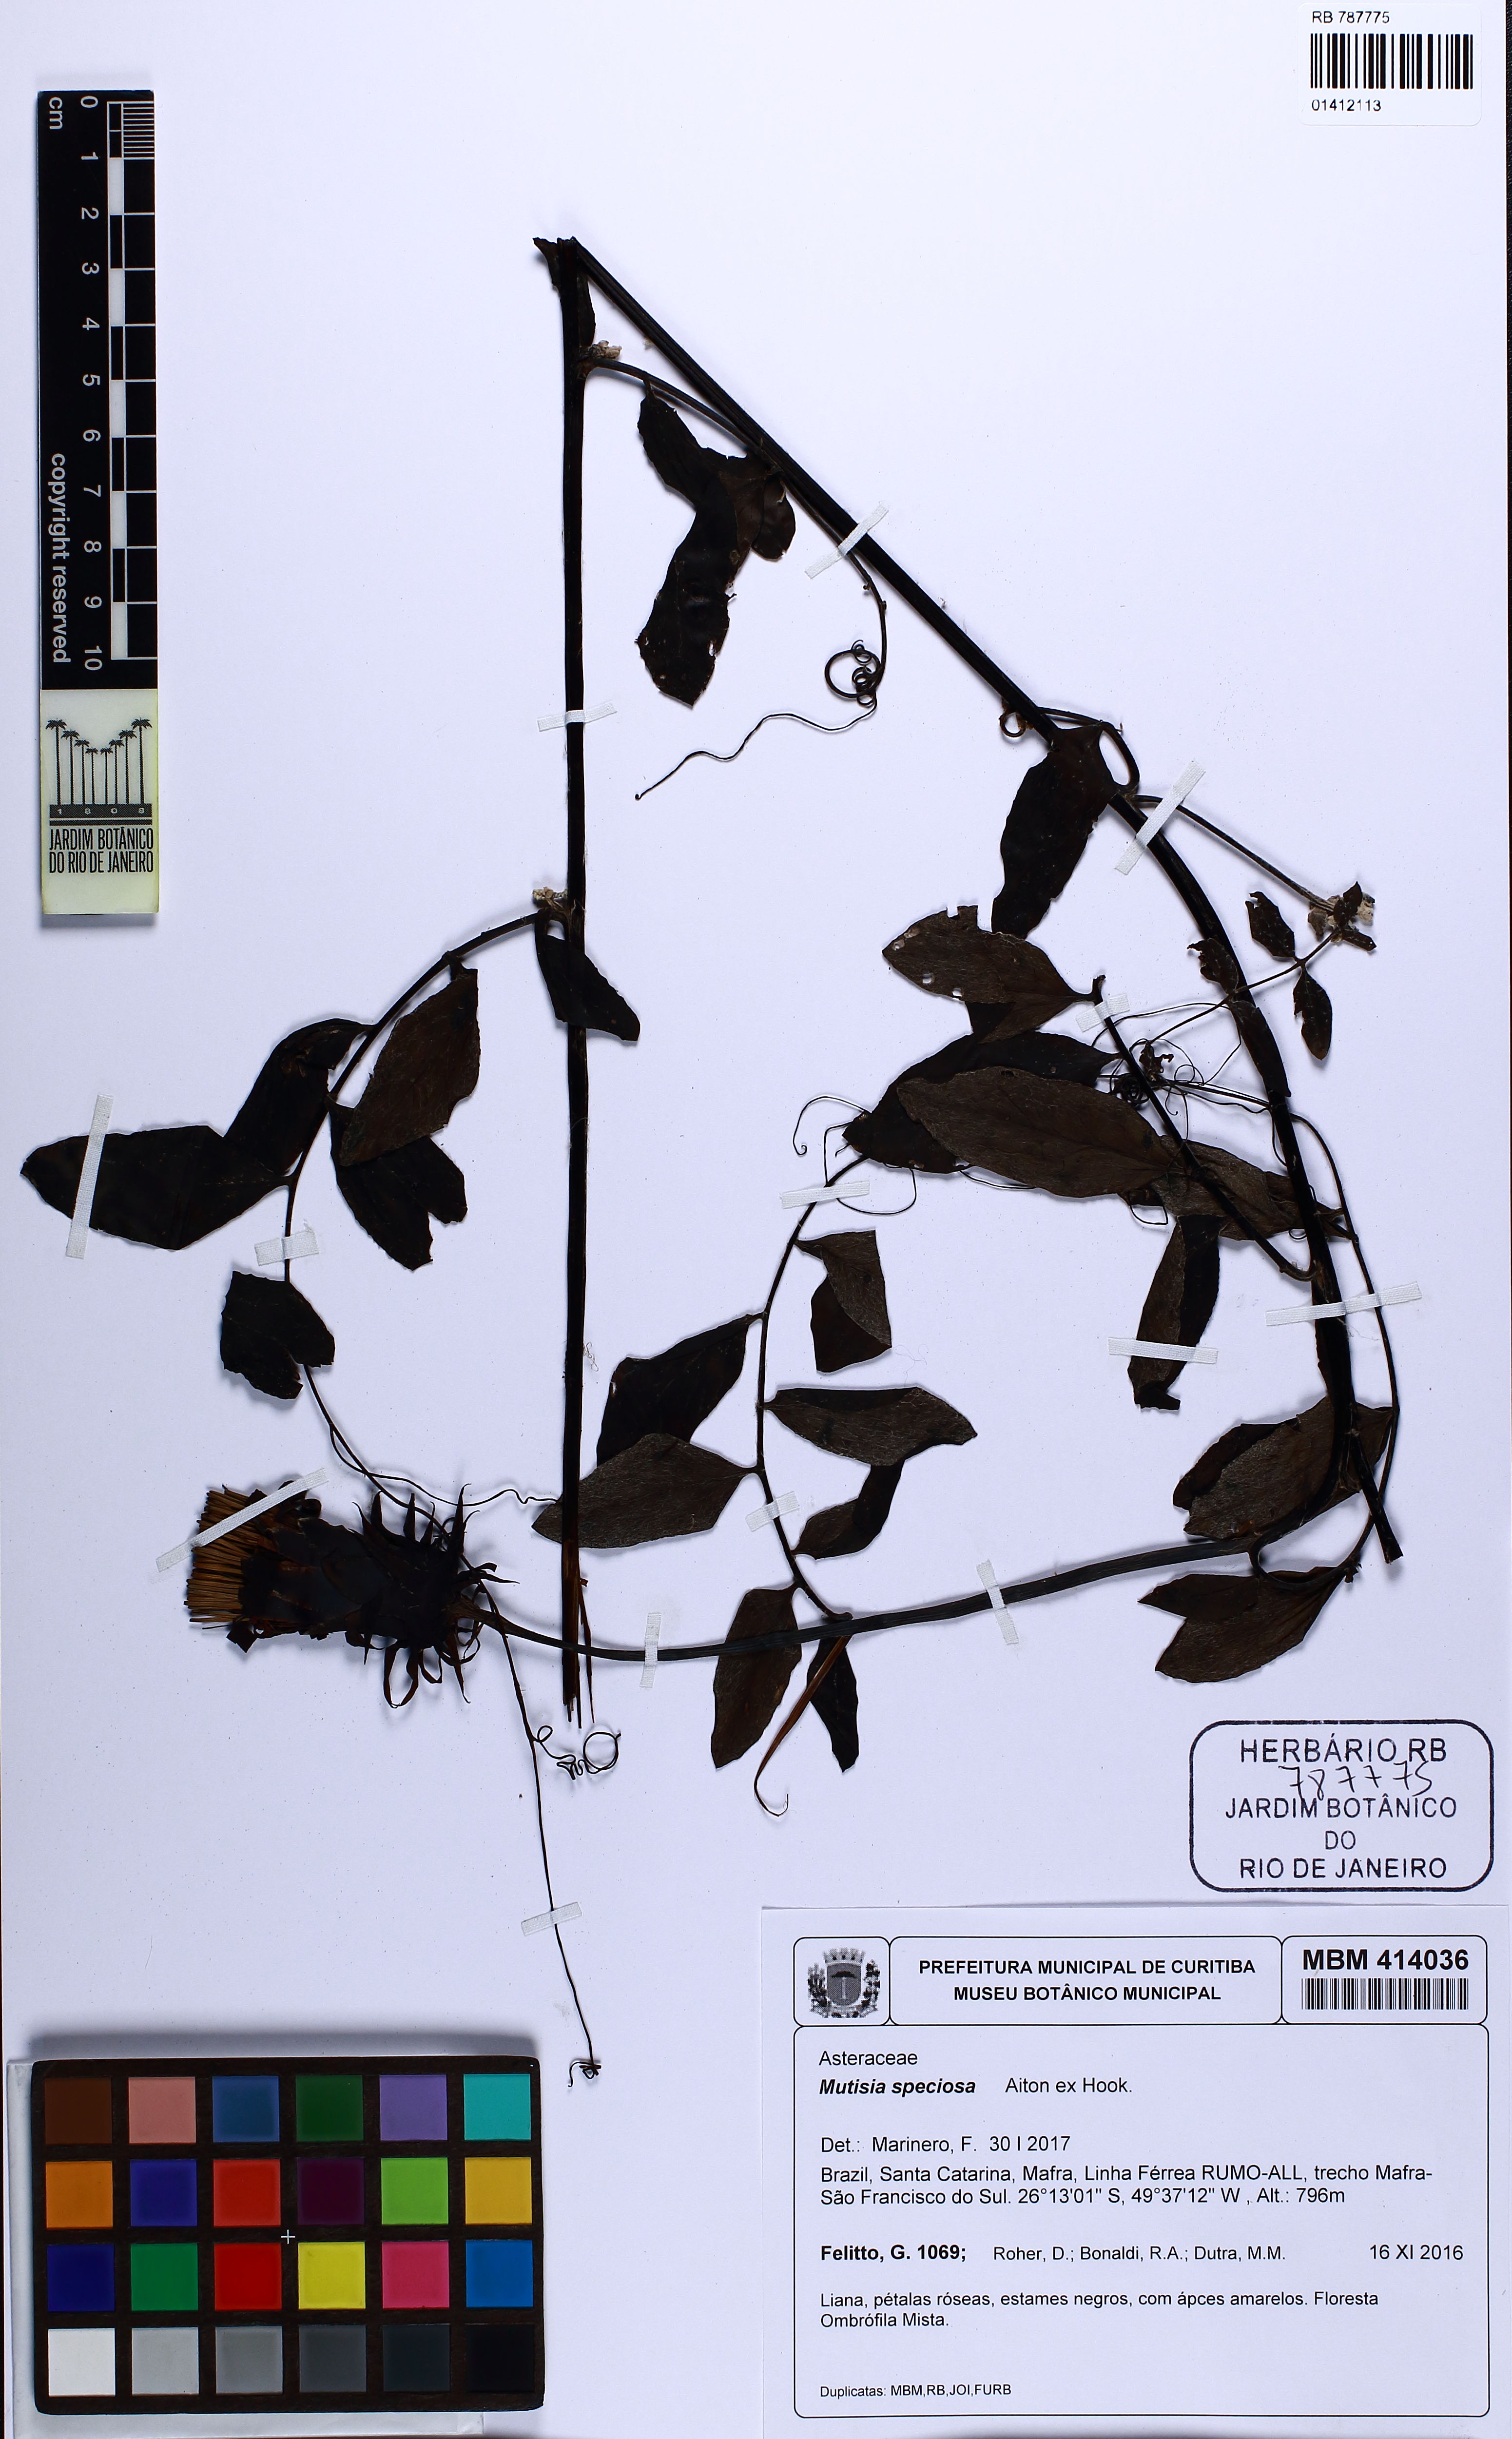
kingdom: Plantae
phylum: Tracheophyta
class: Magnoliopsida
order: Asterales
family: Asteraceae
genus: Mutisia
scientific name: Mutisia speciosa
